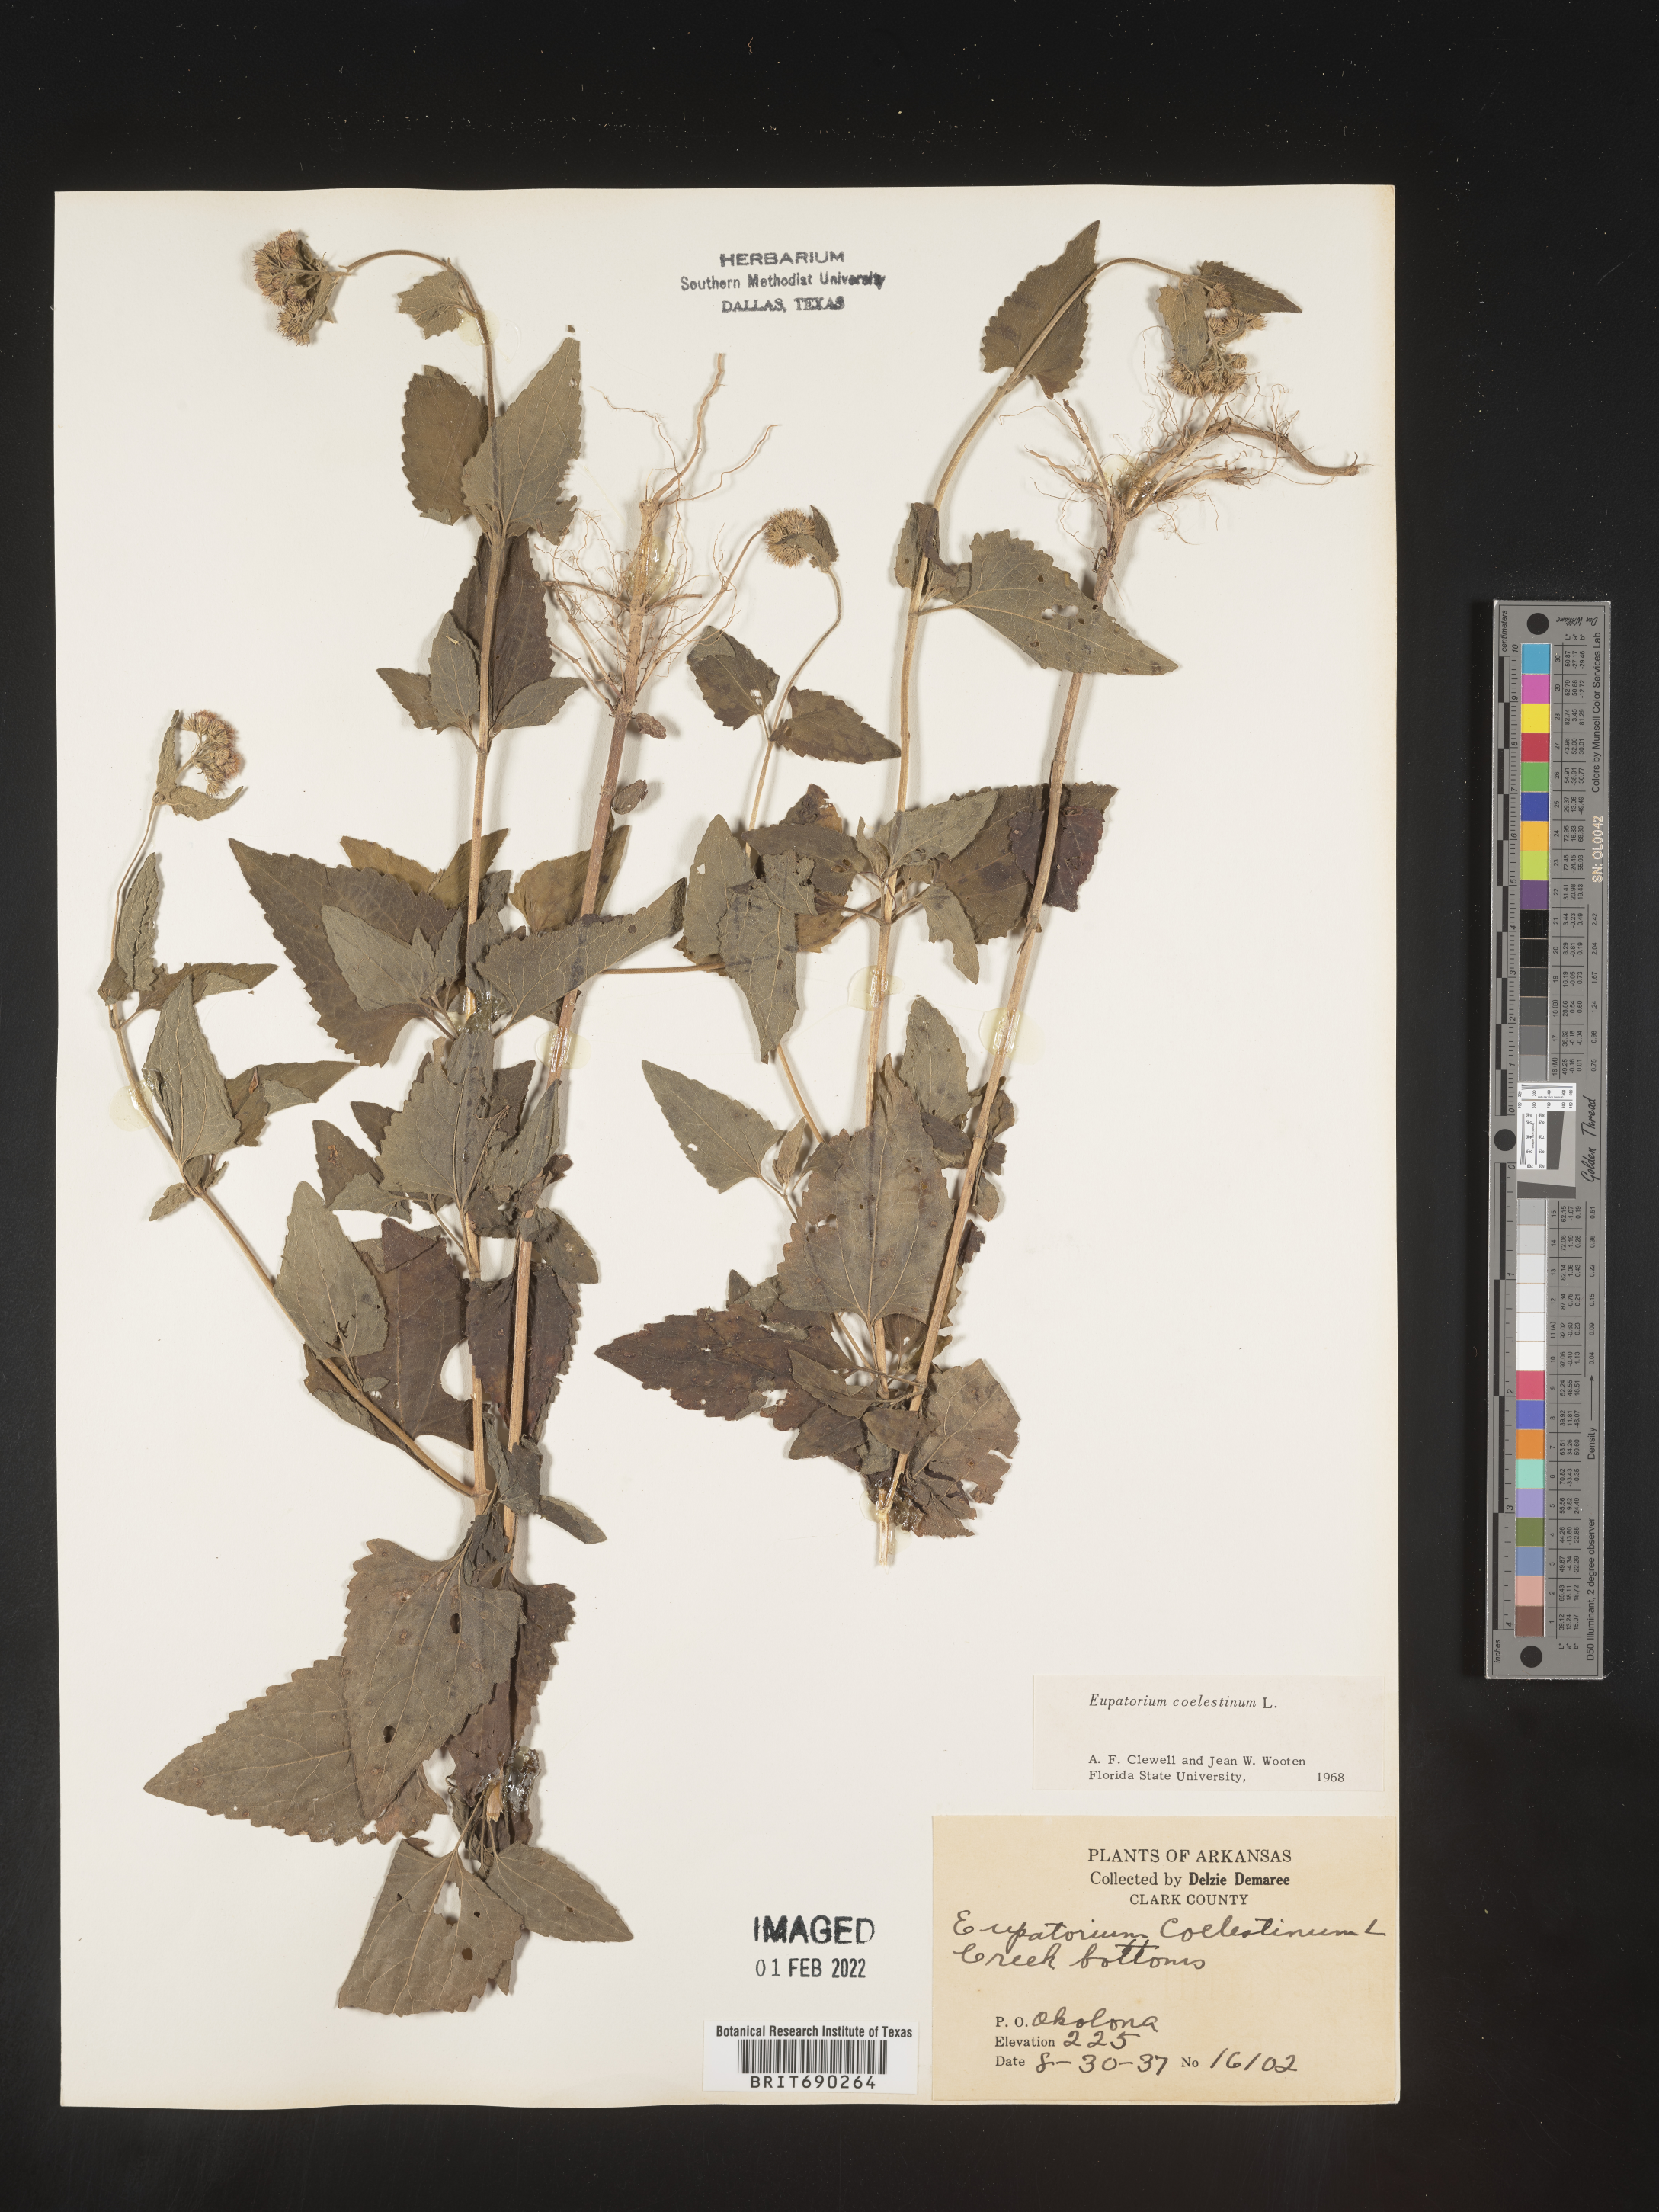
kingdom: Plantae
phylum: Tracheophyta
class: Magnoliopsida
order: Asterales
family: Asteraceae
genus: Conoclinium
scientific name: Conoclinium coelestinum
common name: Blue mistflower
